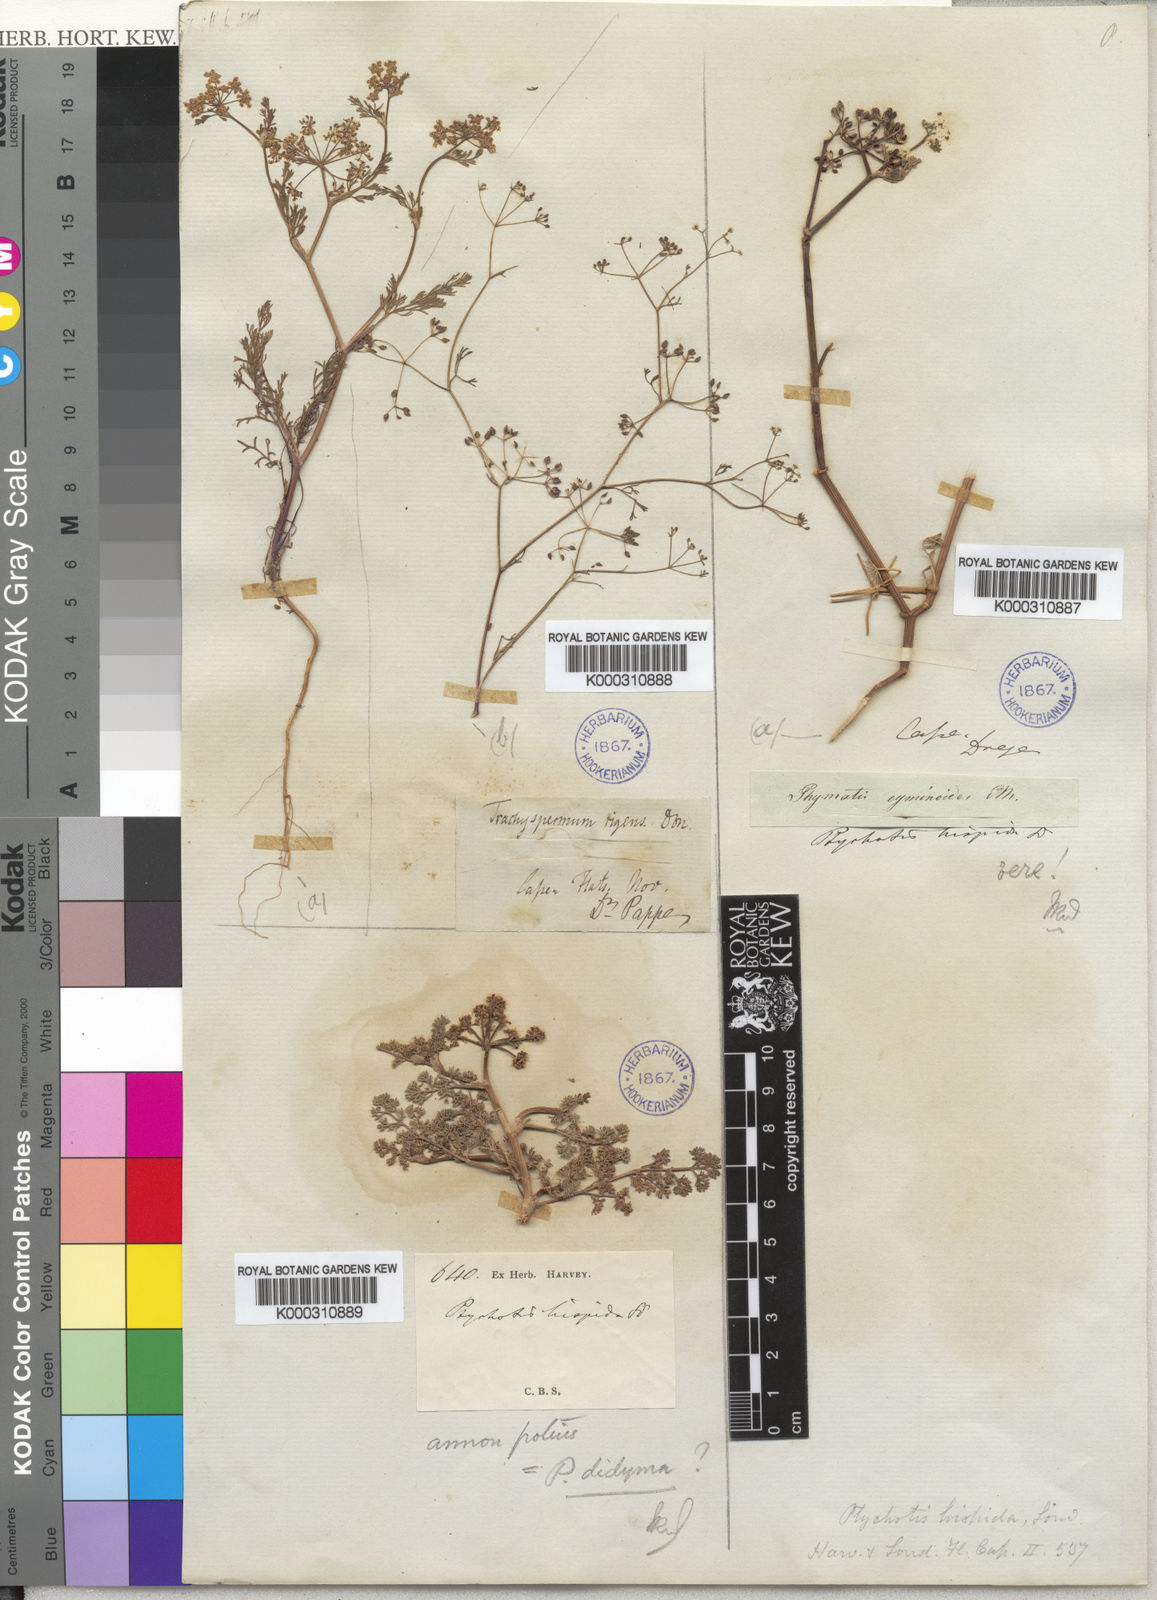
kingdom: Plantae
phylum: Tracheophyta
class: Magnoliopsida
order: Apiales
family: Apiaceae
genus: Dasispermum
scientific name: Dasispermum hispidum
